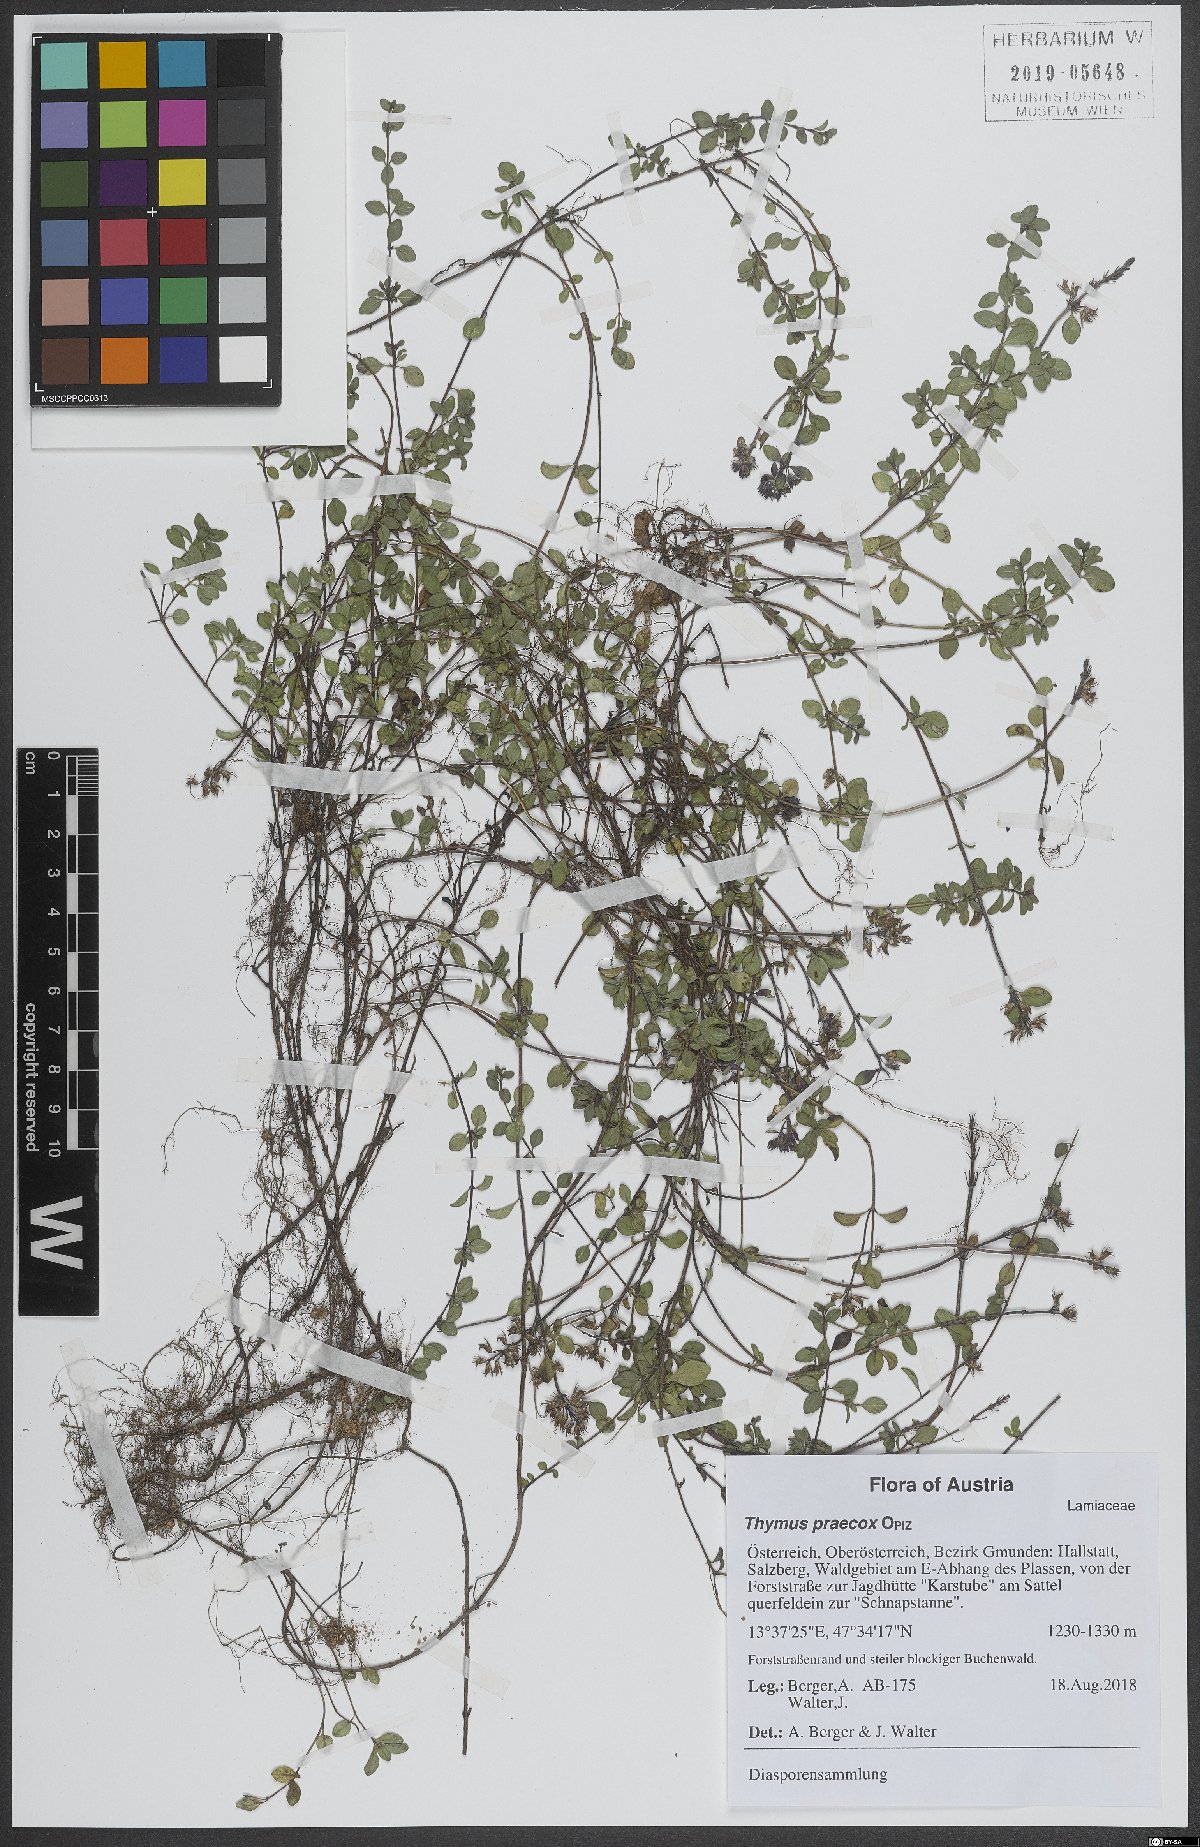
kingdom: Plantae
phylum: Tracheophyta
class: Magnoliopsida
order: Lamiales
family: Lamiaceae
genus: Thymus
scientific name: Thymus praecox
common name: Wild thyme
